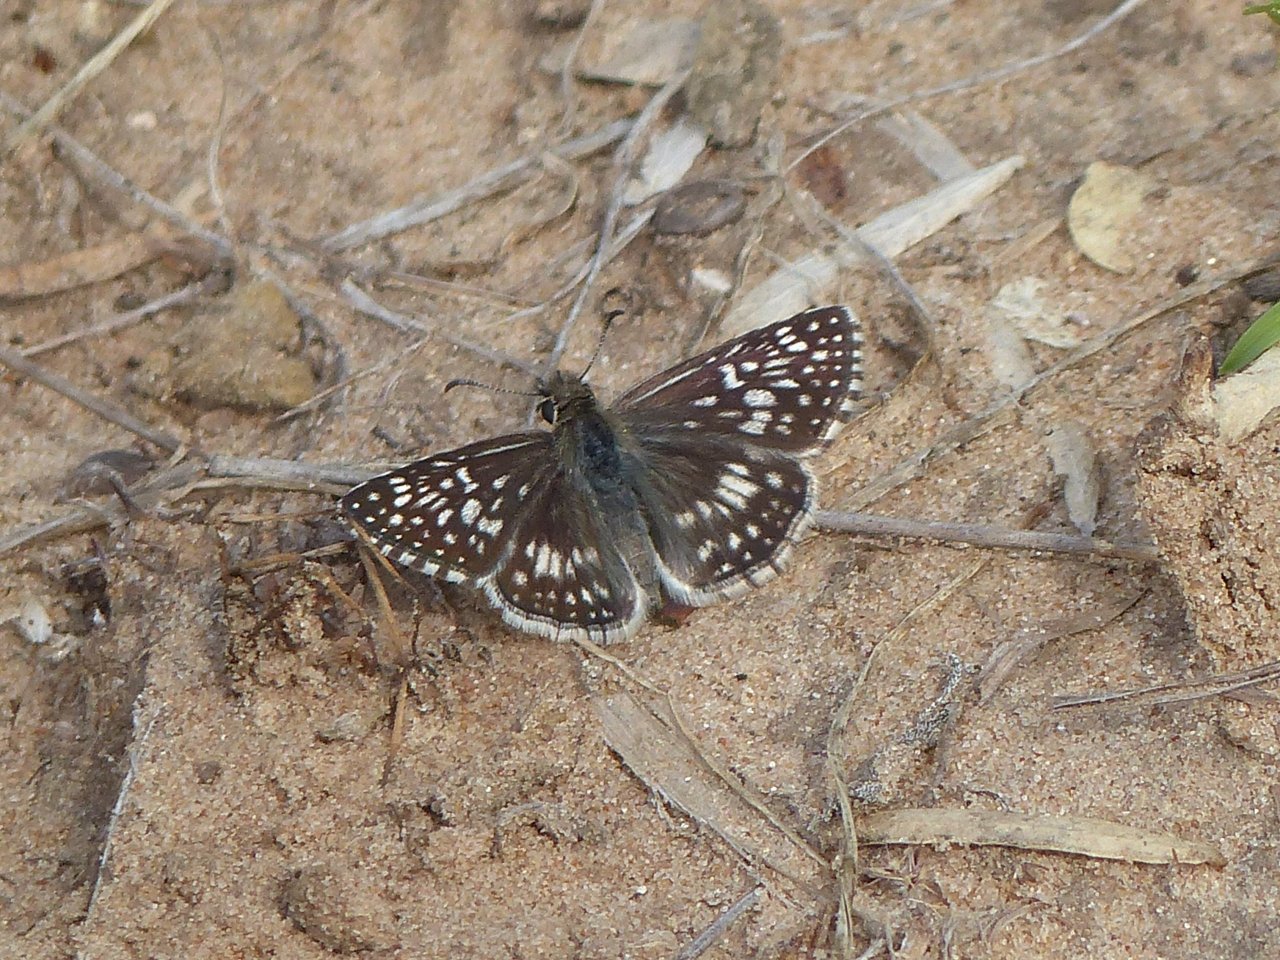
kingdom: Animalia
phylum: Arthropoda
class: Insecta
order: Lepidoptera
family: Hesperiidae
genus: Pyrgus
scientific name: Pyrgus oileus
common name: Desert Checkered-Skipper
